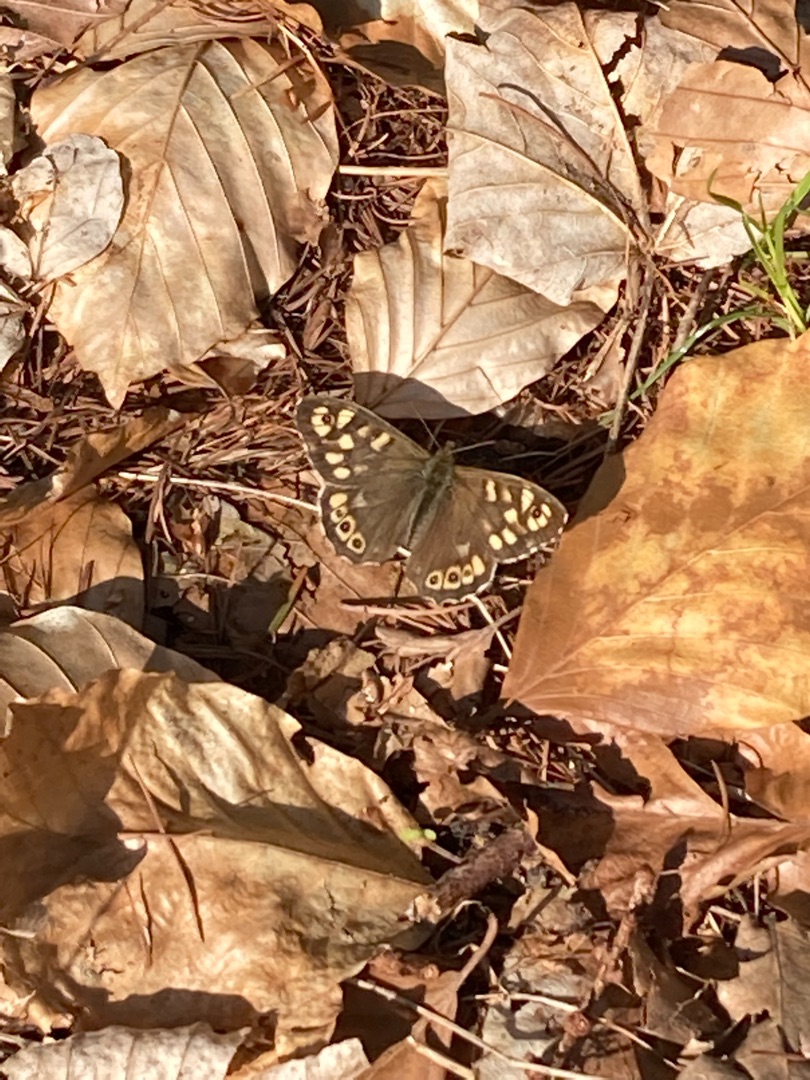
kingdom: Animalia
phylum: Arthropoda
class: Insecta
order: Lepidoptera
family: Nymphalidae
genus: Pararge
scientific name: Pararge aegeria
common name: Skovrandøje
